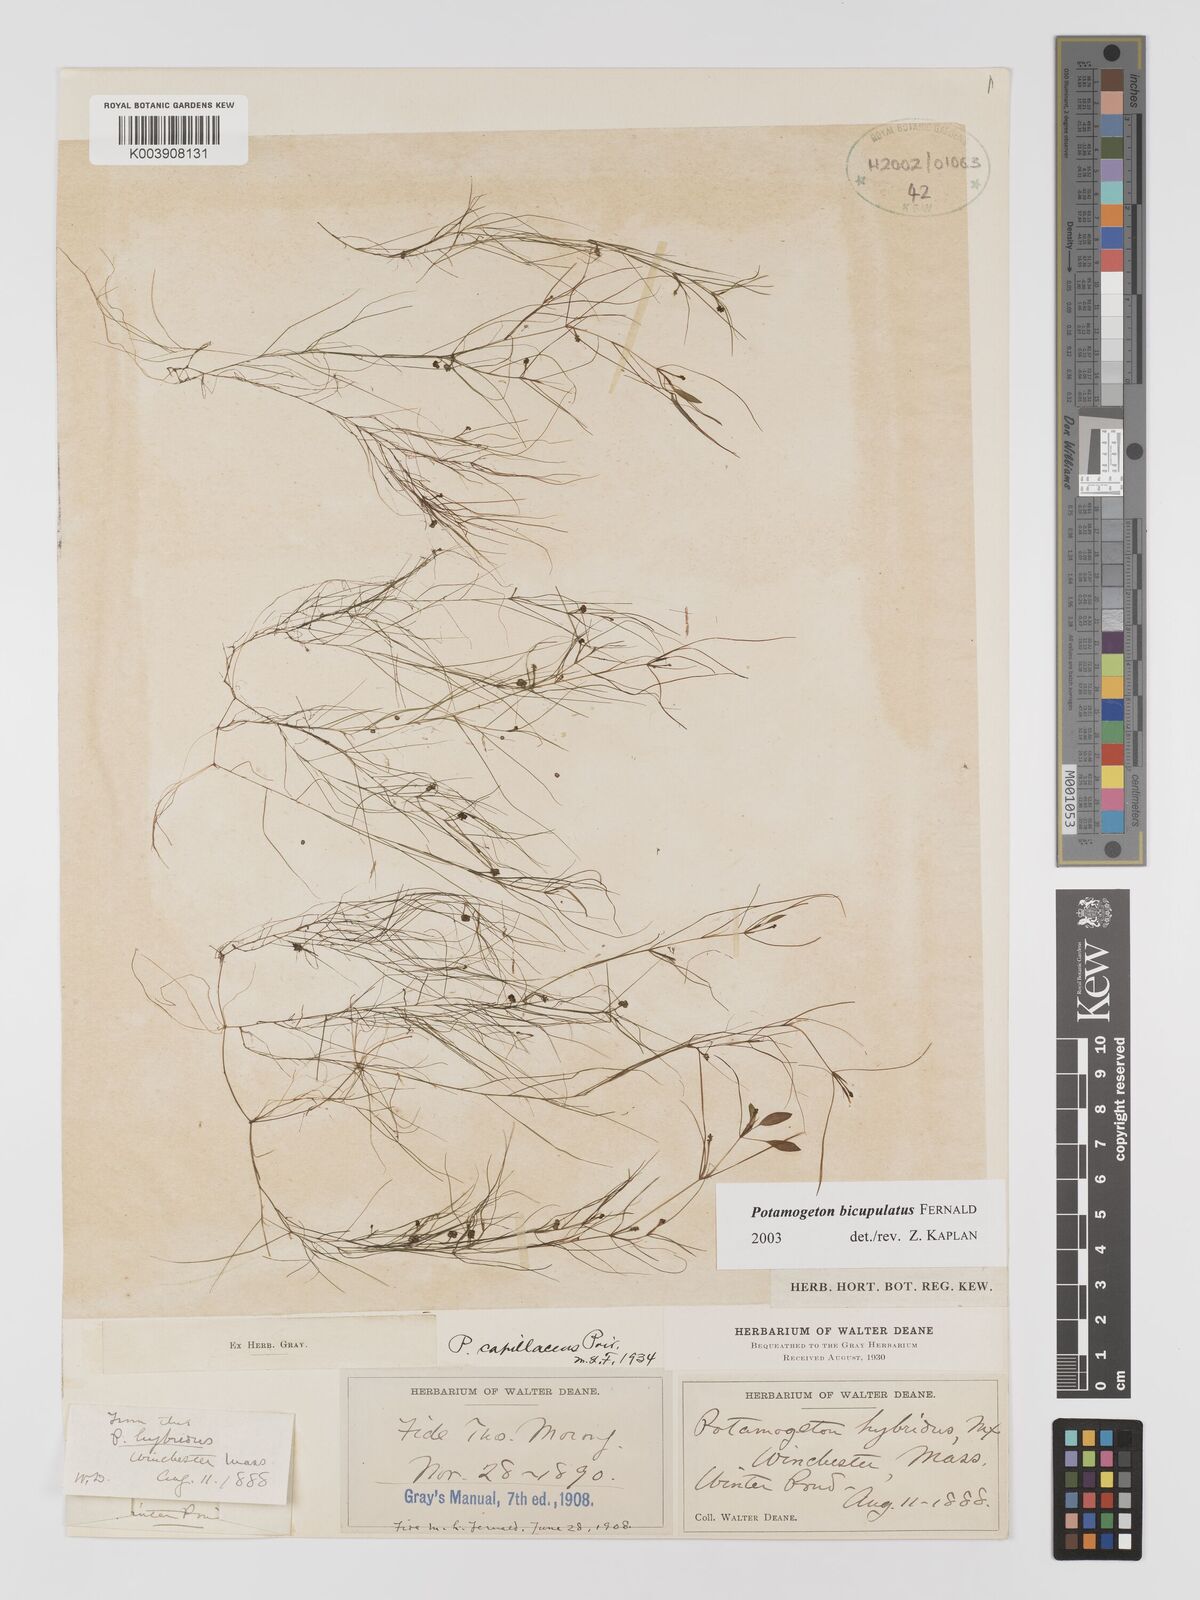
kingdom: Plantae
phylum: Tracheophyta
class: Liliopsida
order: Alismatales
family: Potamogetonaceae
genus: Potamogeton
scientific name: Potamogeton bicupulatus
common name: Snail-seed pondweed
